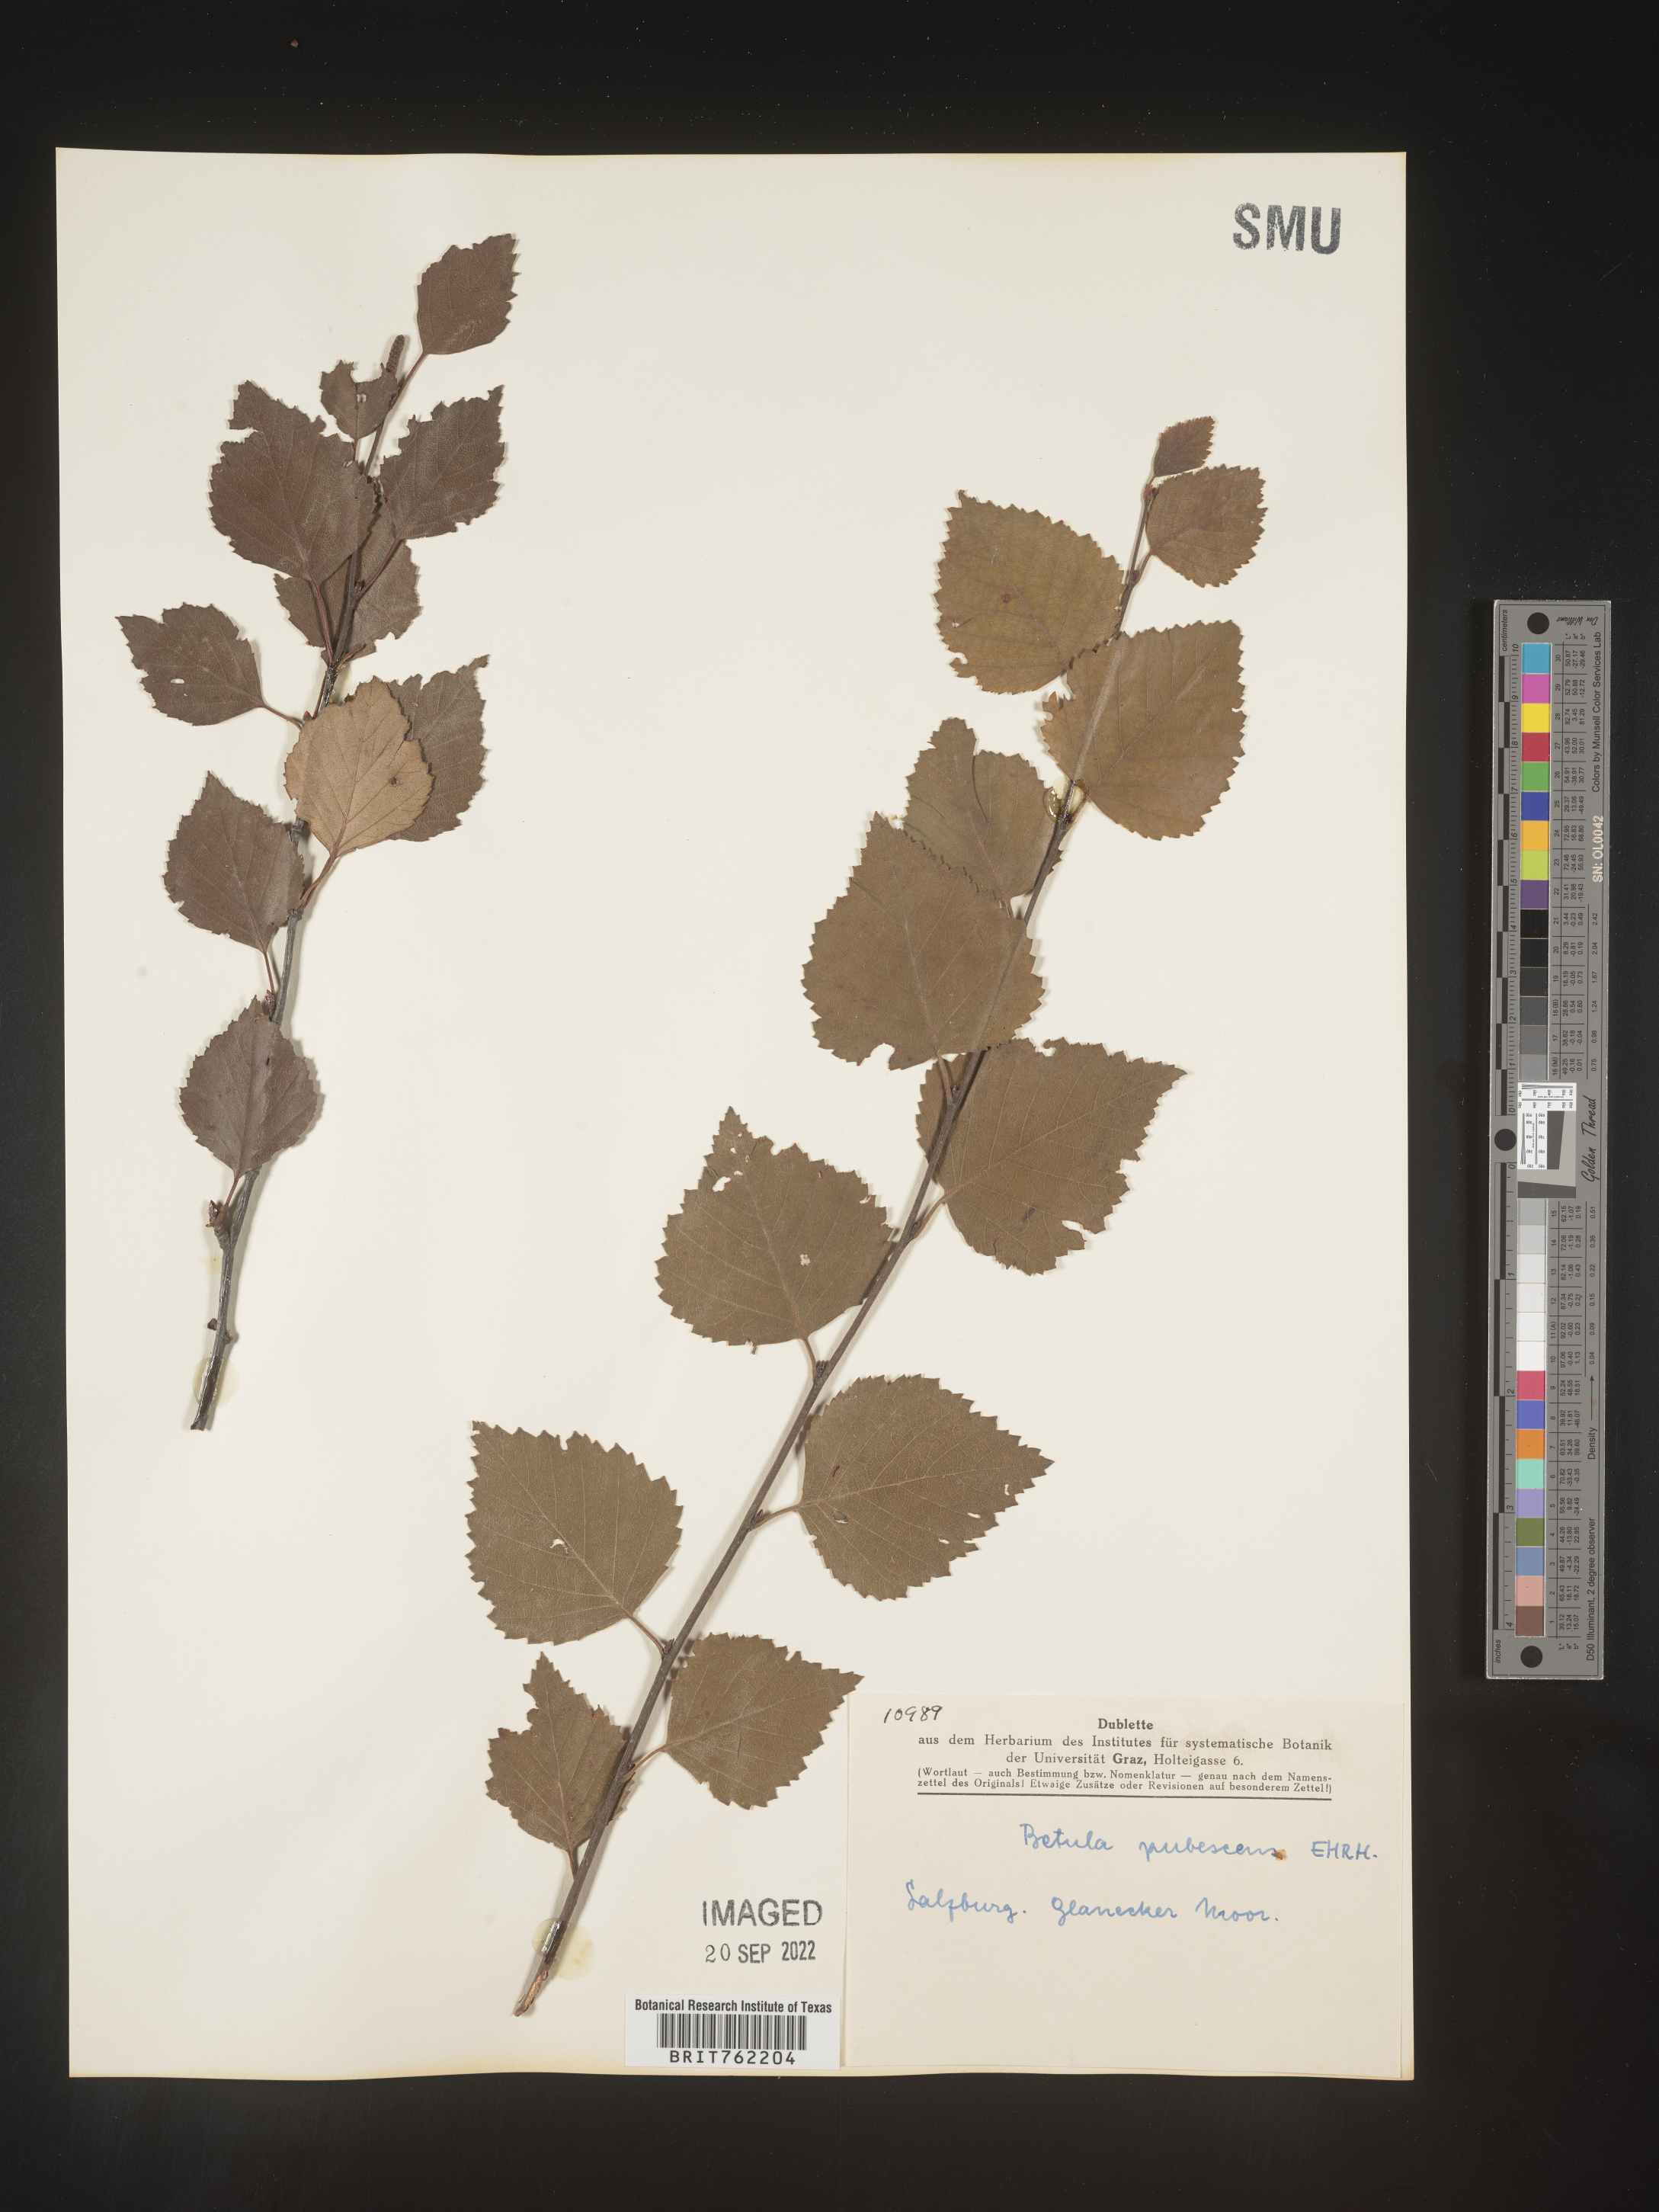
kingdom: Plantae
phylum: Tracheophyta
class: Magnoliopsida
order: Fagales
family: Betulaceae
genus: Betula
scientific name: Betula
